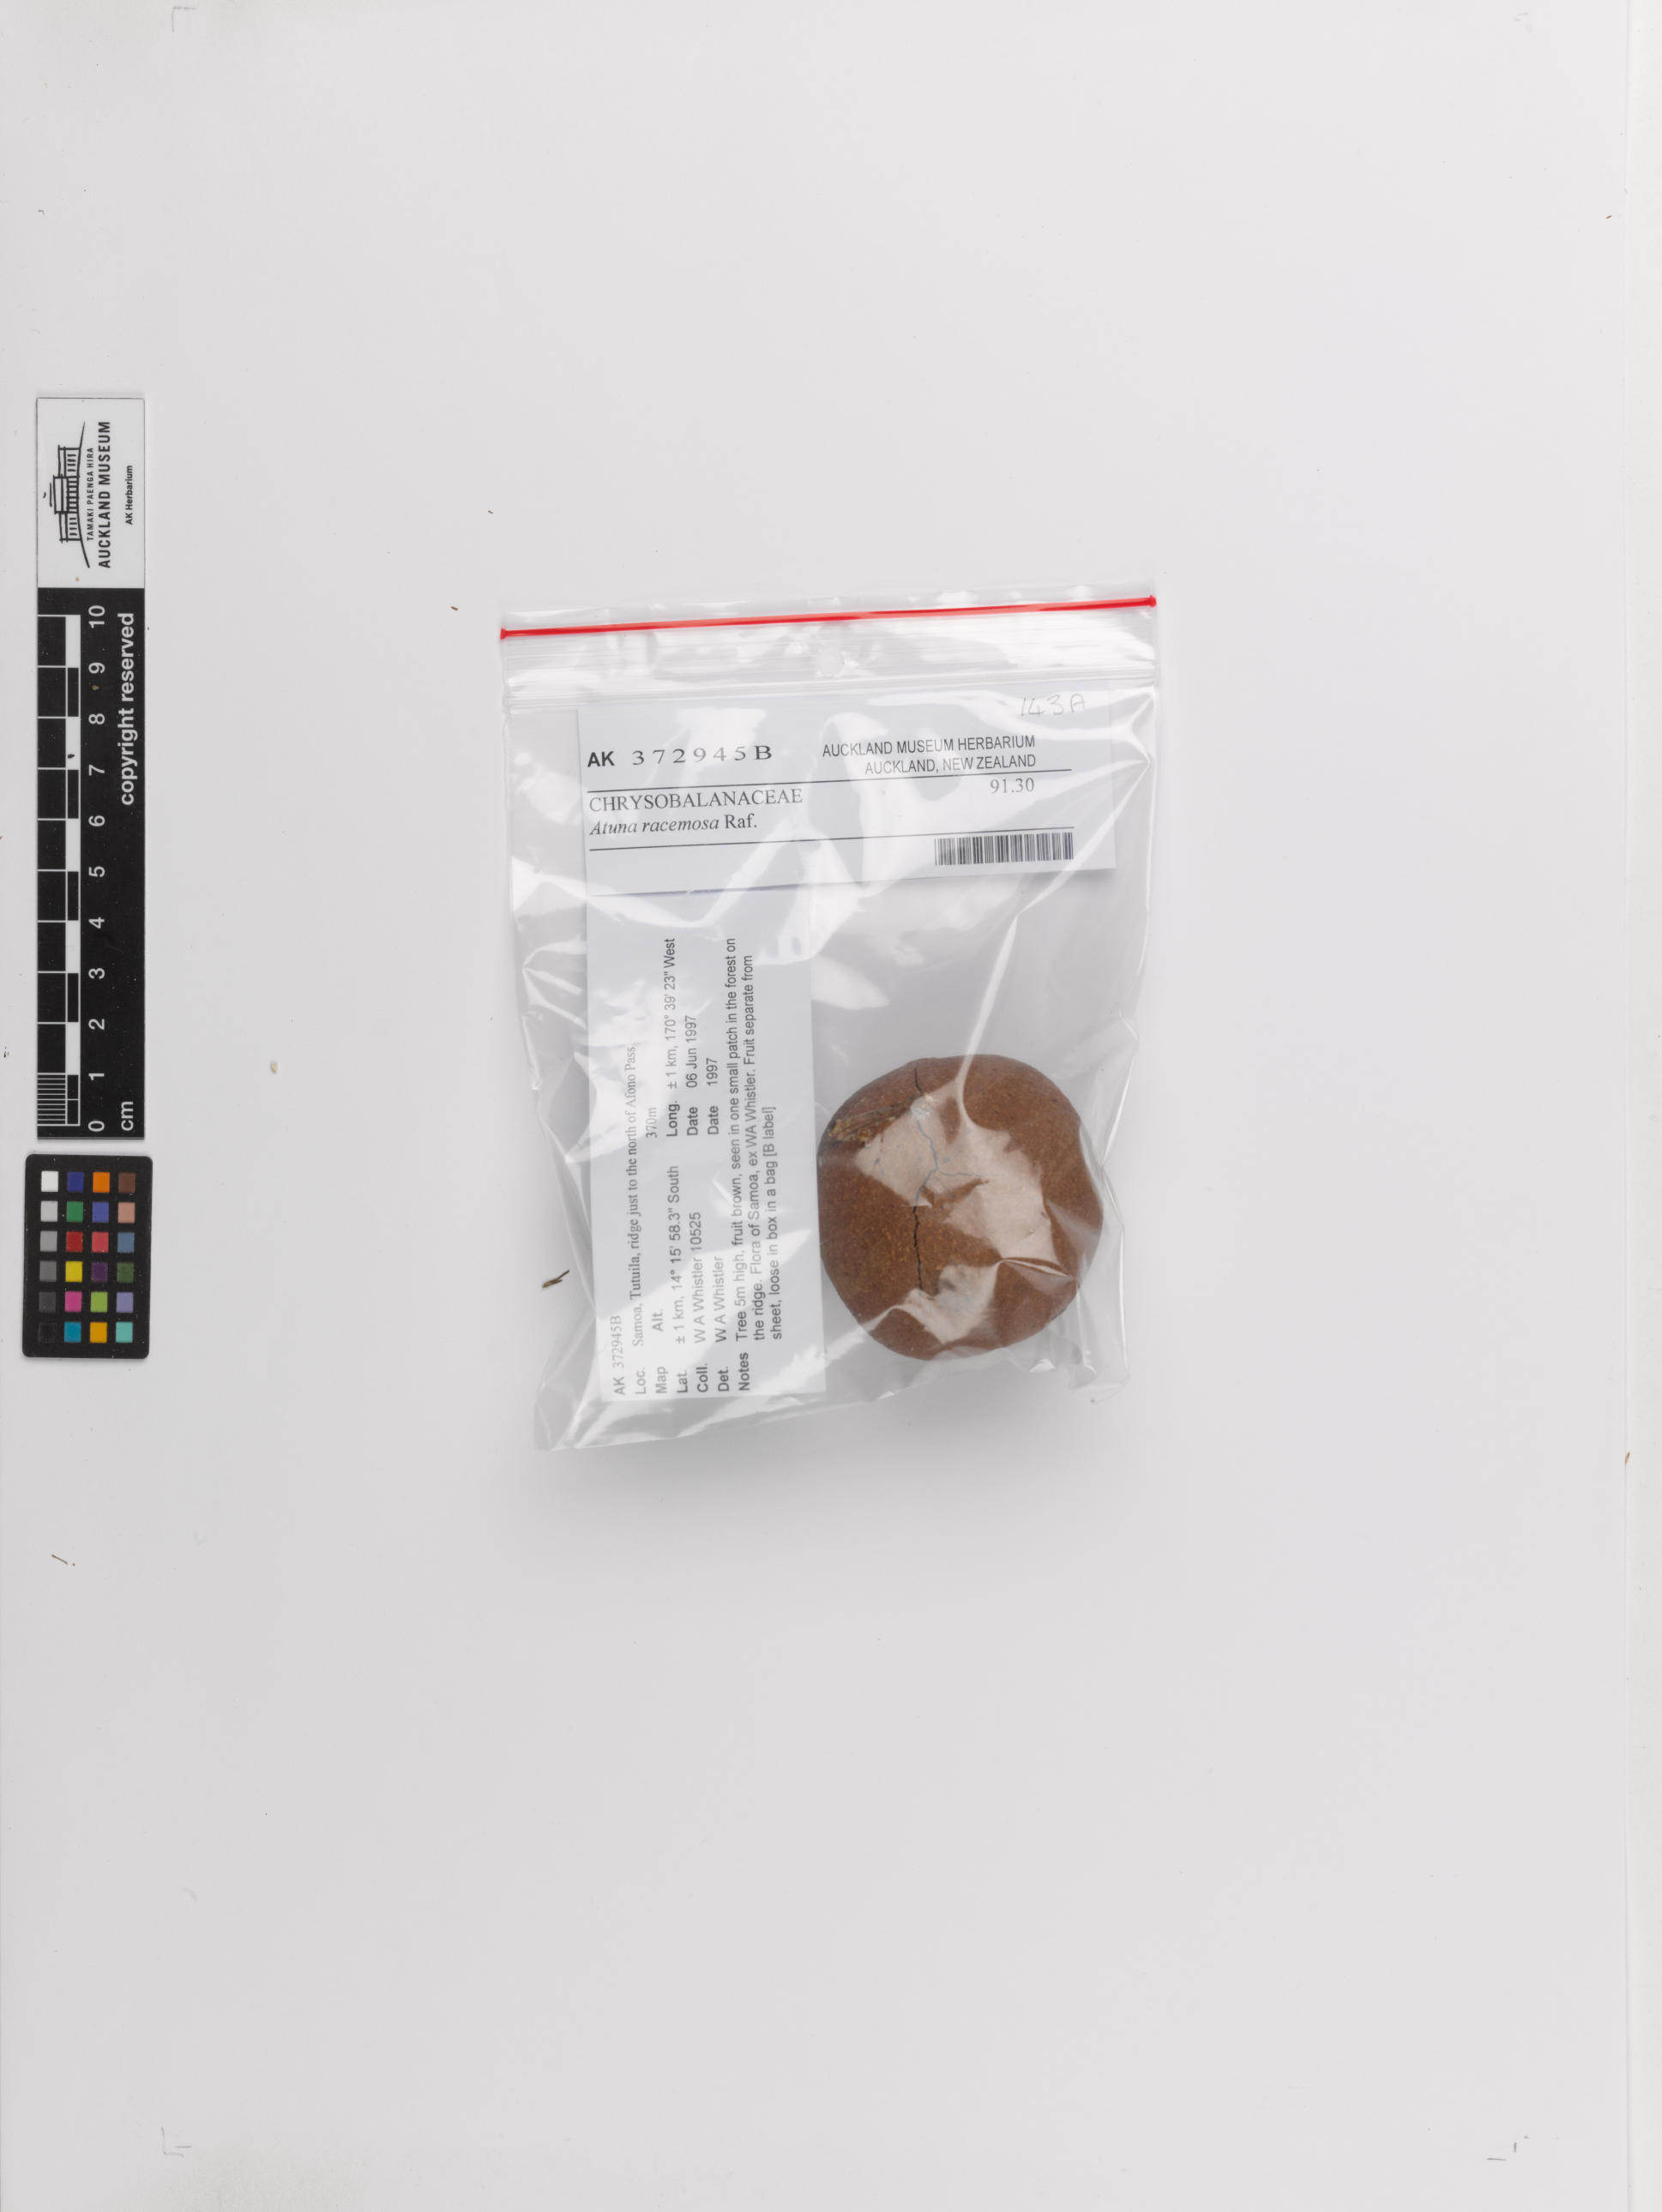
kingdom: Plantae
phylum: Tracheophyta
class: Magnoliopsida
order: Malpighiales
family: Chrysobalanaceae
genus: Atuna
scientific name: Atuna excelsa
